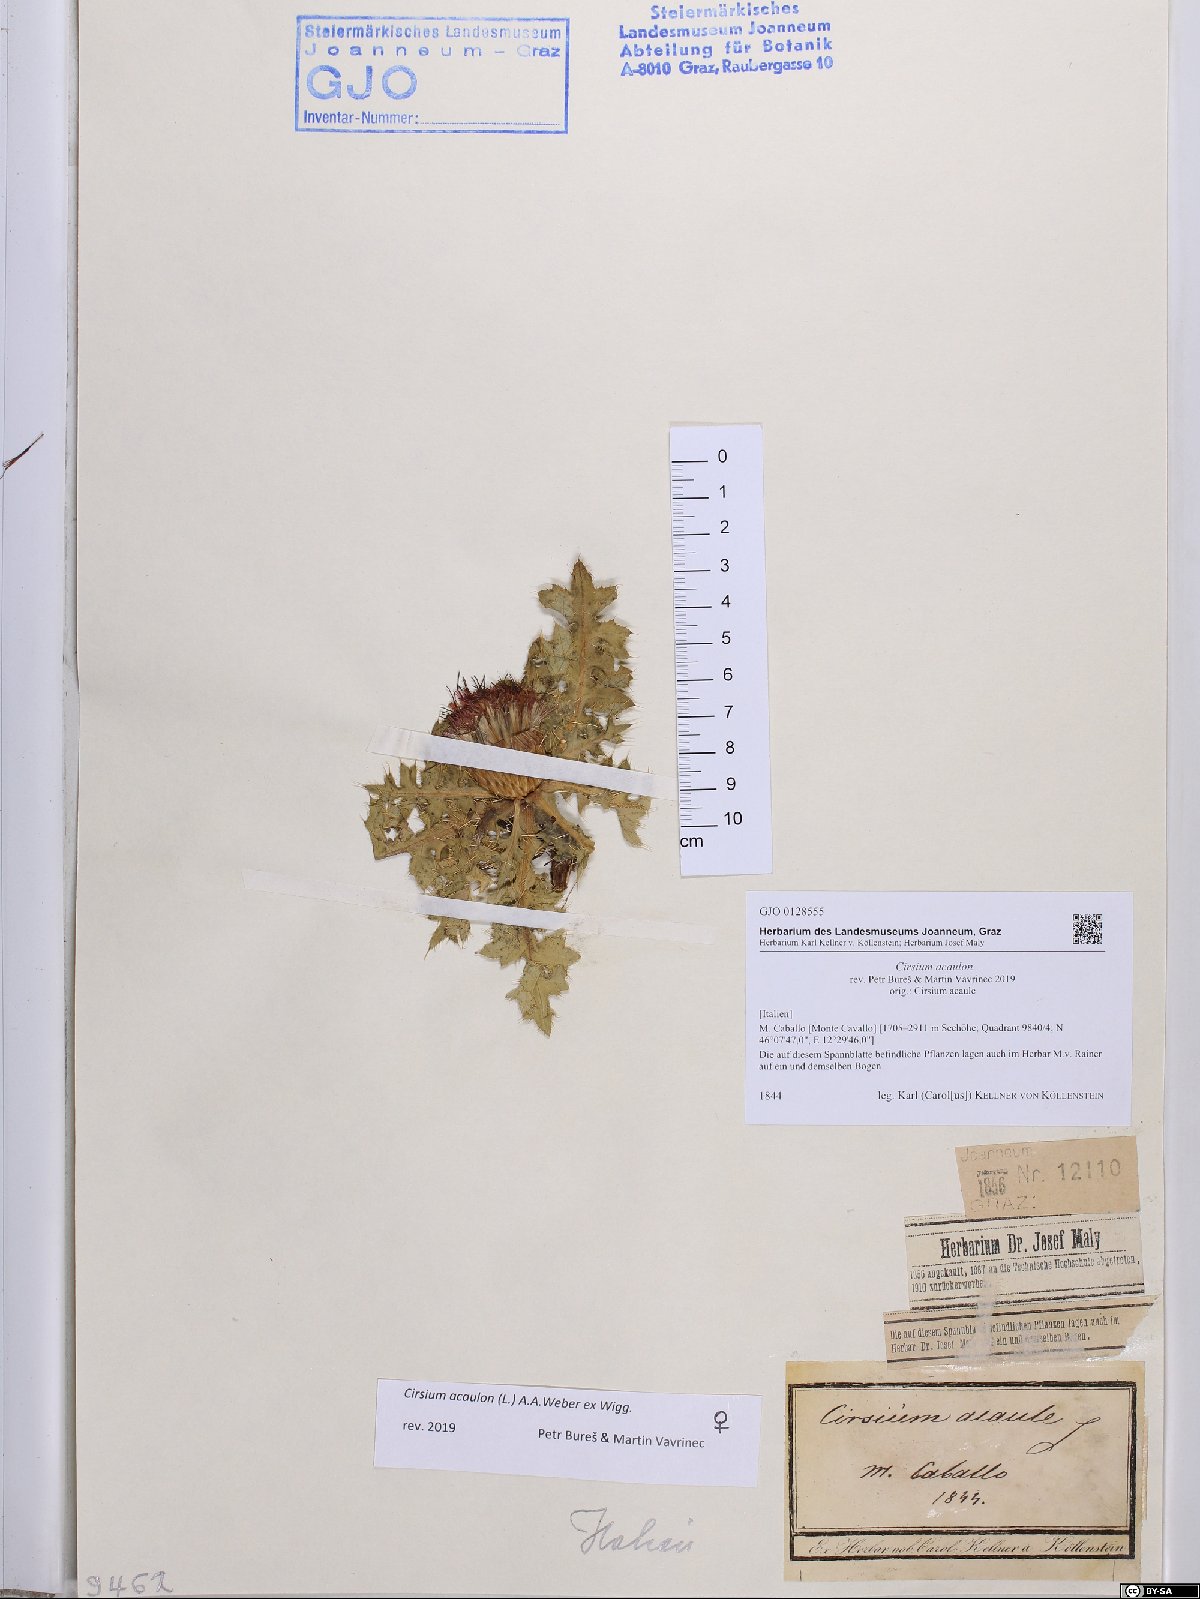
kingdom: Plantae
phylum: Tracheophyta
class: Magnoliopsida
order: Asterales
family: Asteraceae
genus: Cirsium
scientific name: Cirsium acaulon
